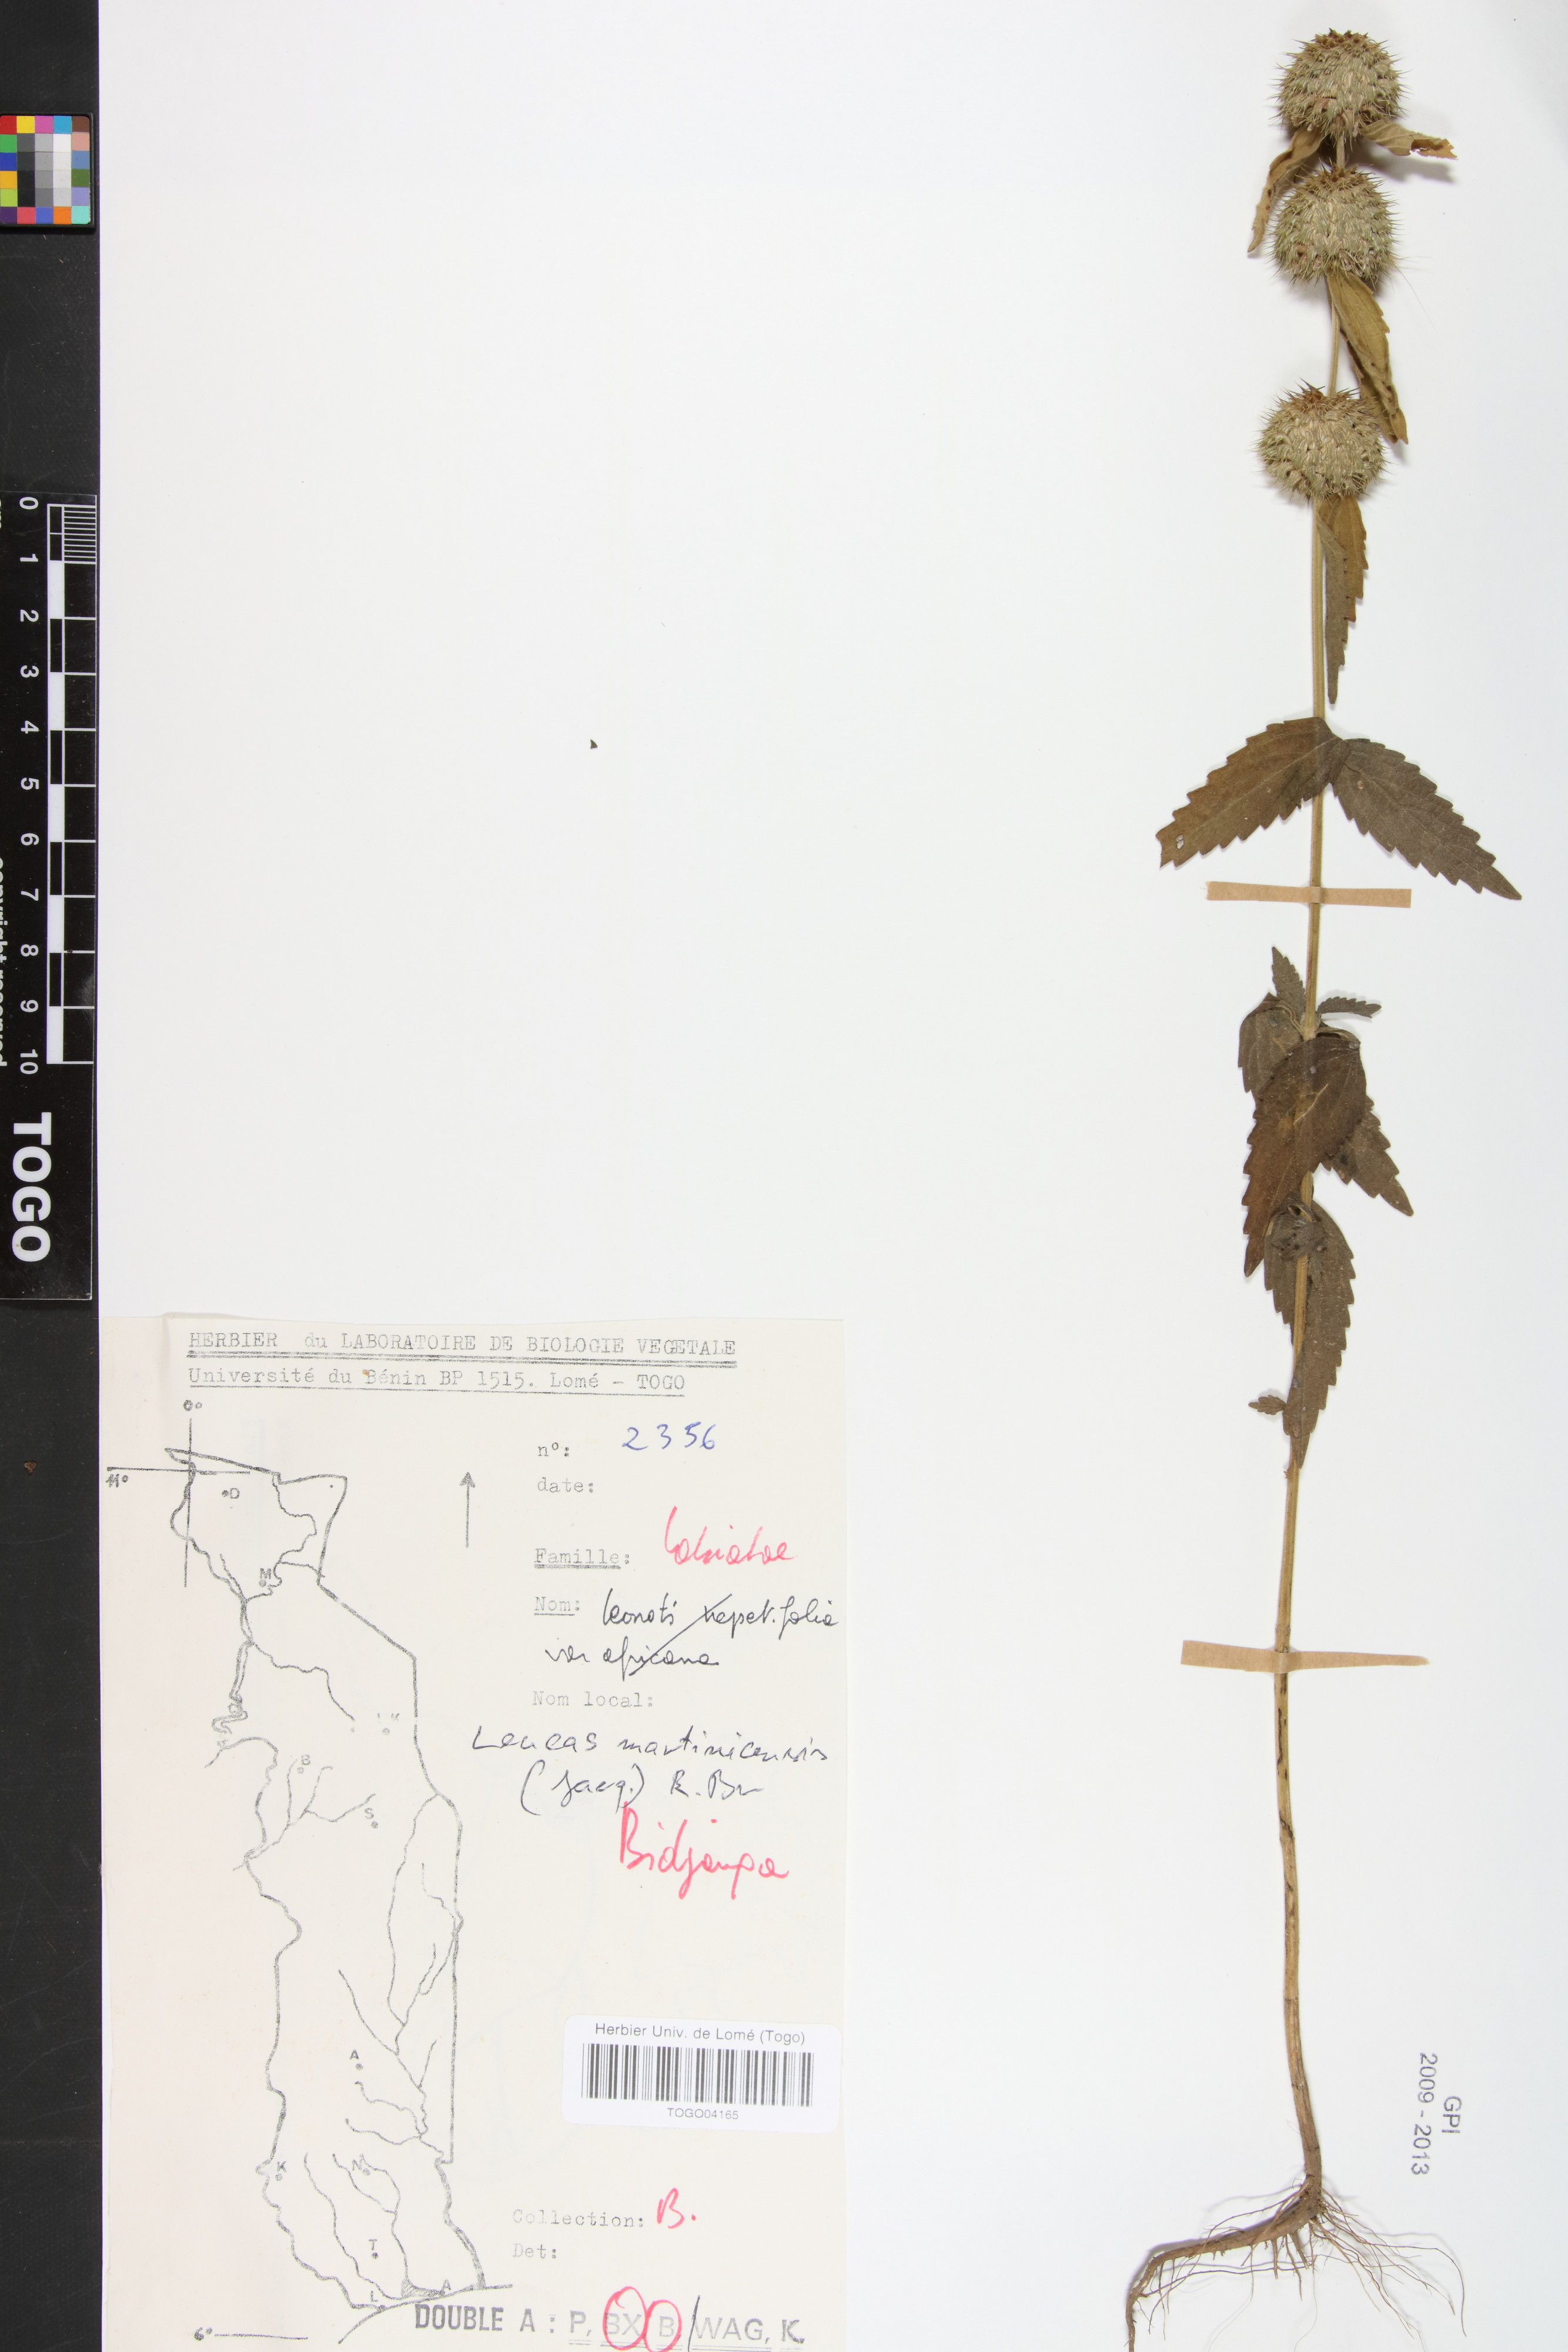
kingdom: Plantae
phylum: Tracheophyta
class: Magnoliopsida
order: Lamiales
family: Lamiaceae
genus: Leucas
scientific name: Leucas martinicensis
